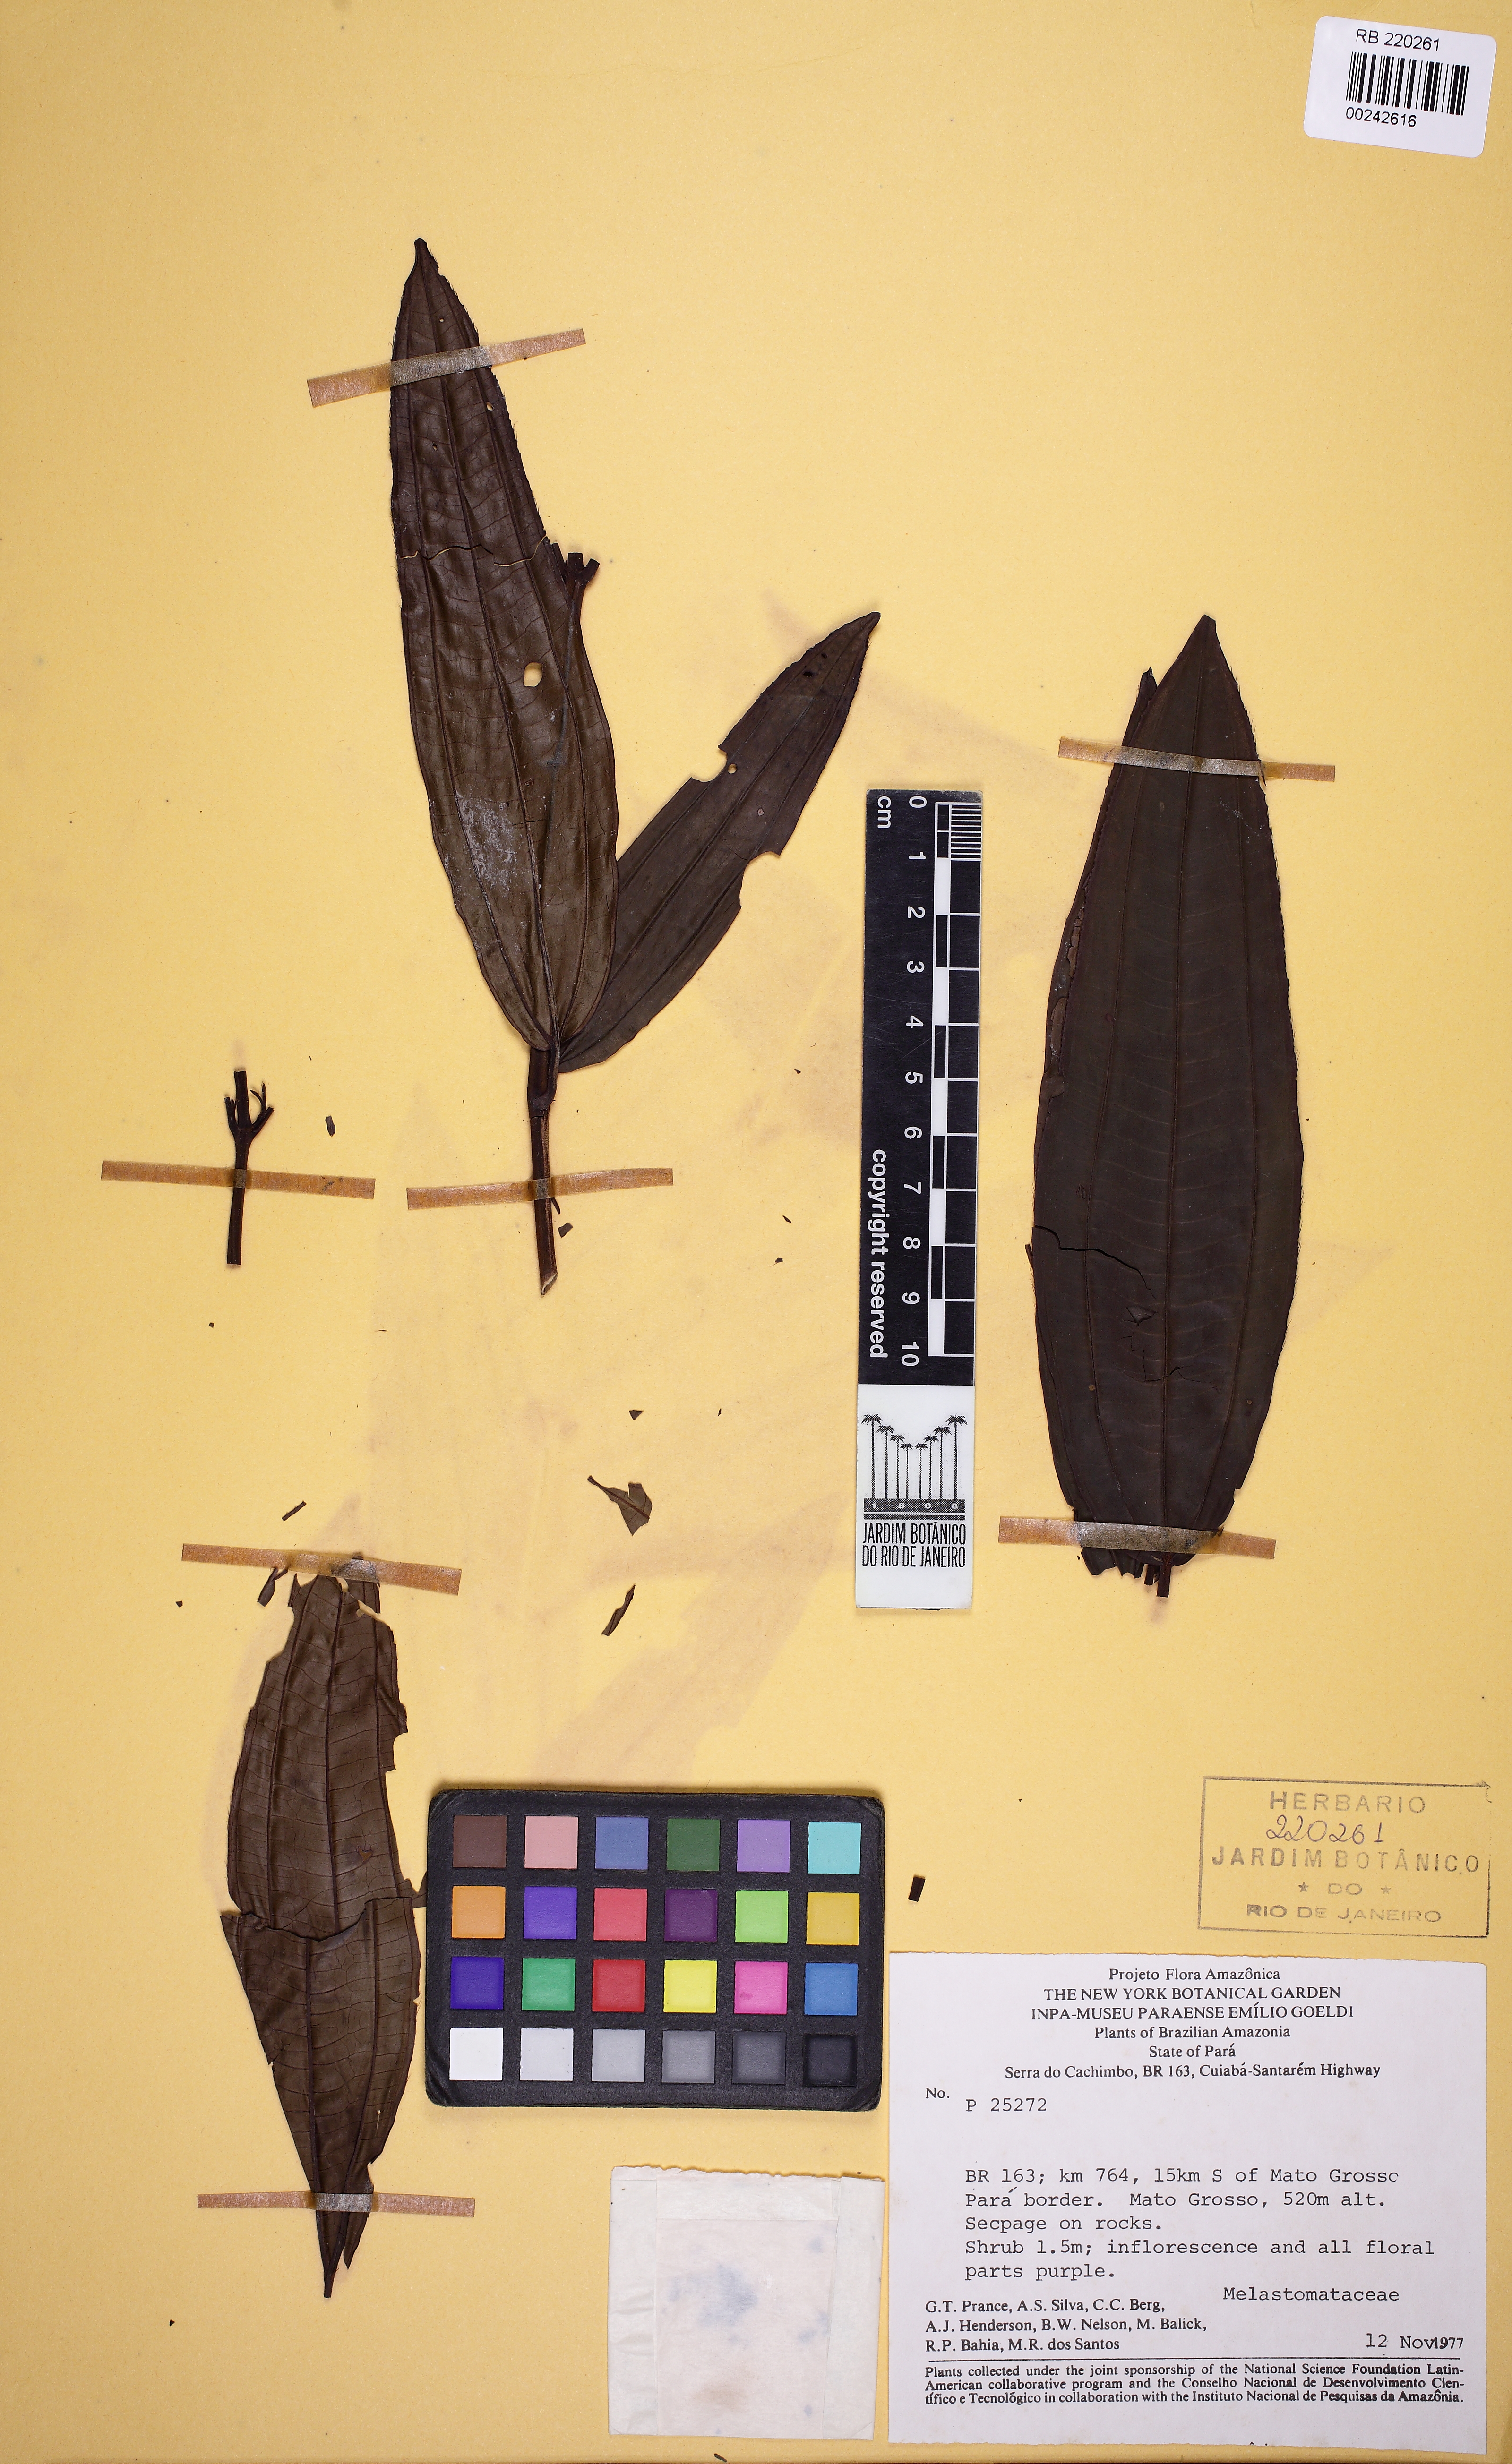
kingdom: Plantae
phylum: Tracheophyta
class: Magnoliopsida
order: Myrtales
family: Melastomataceae
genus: Miconia
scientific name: Miconia ciliata
